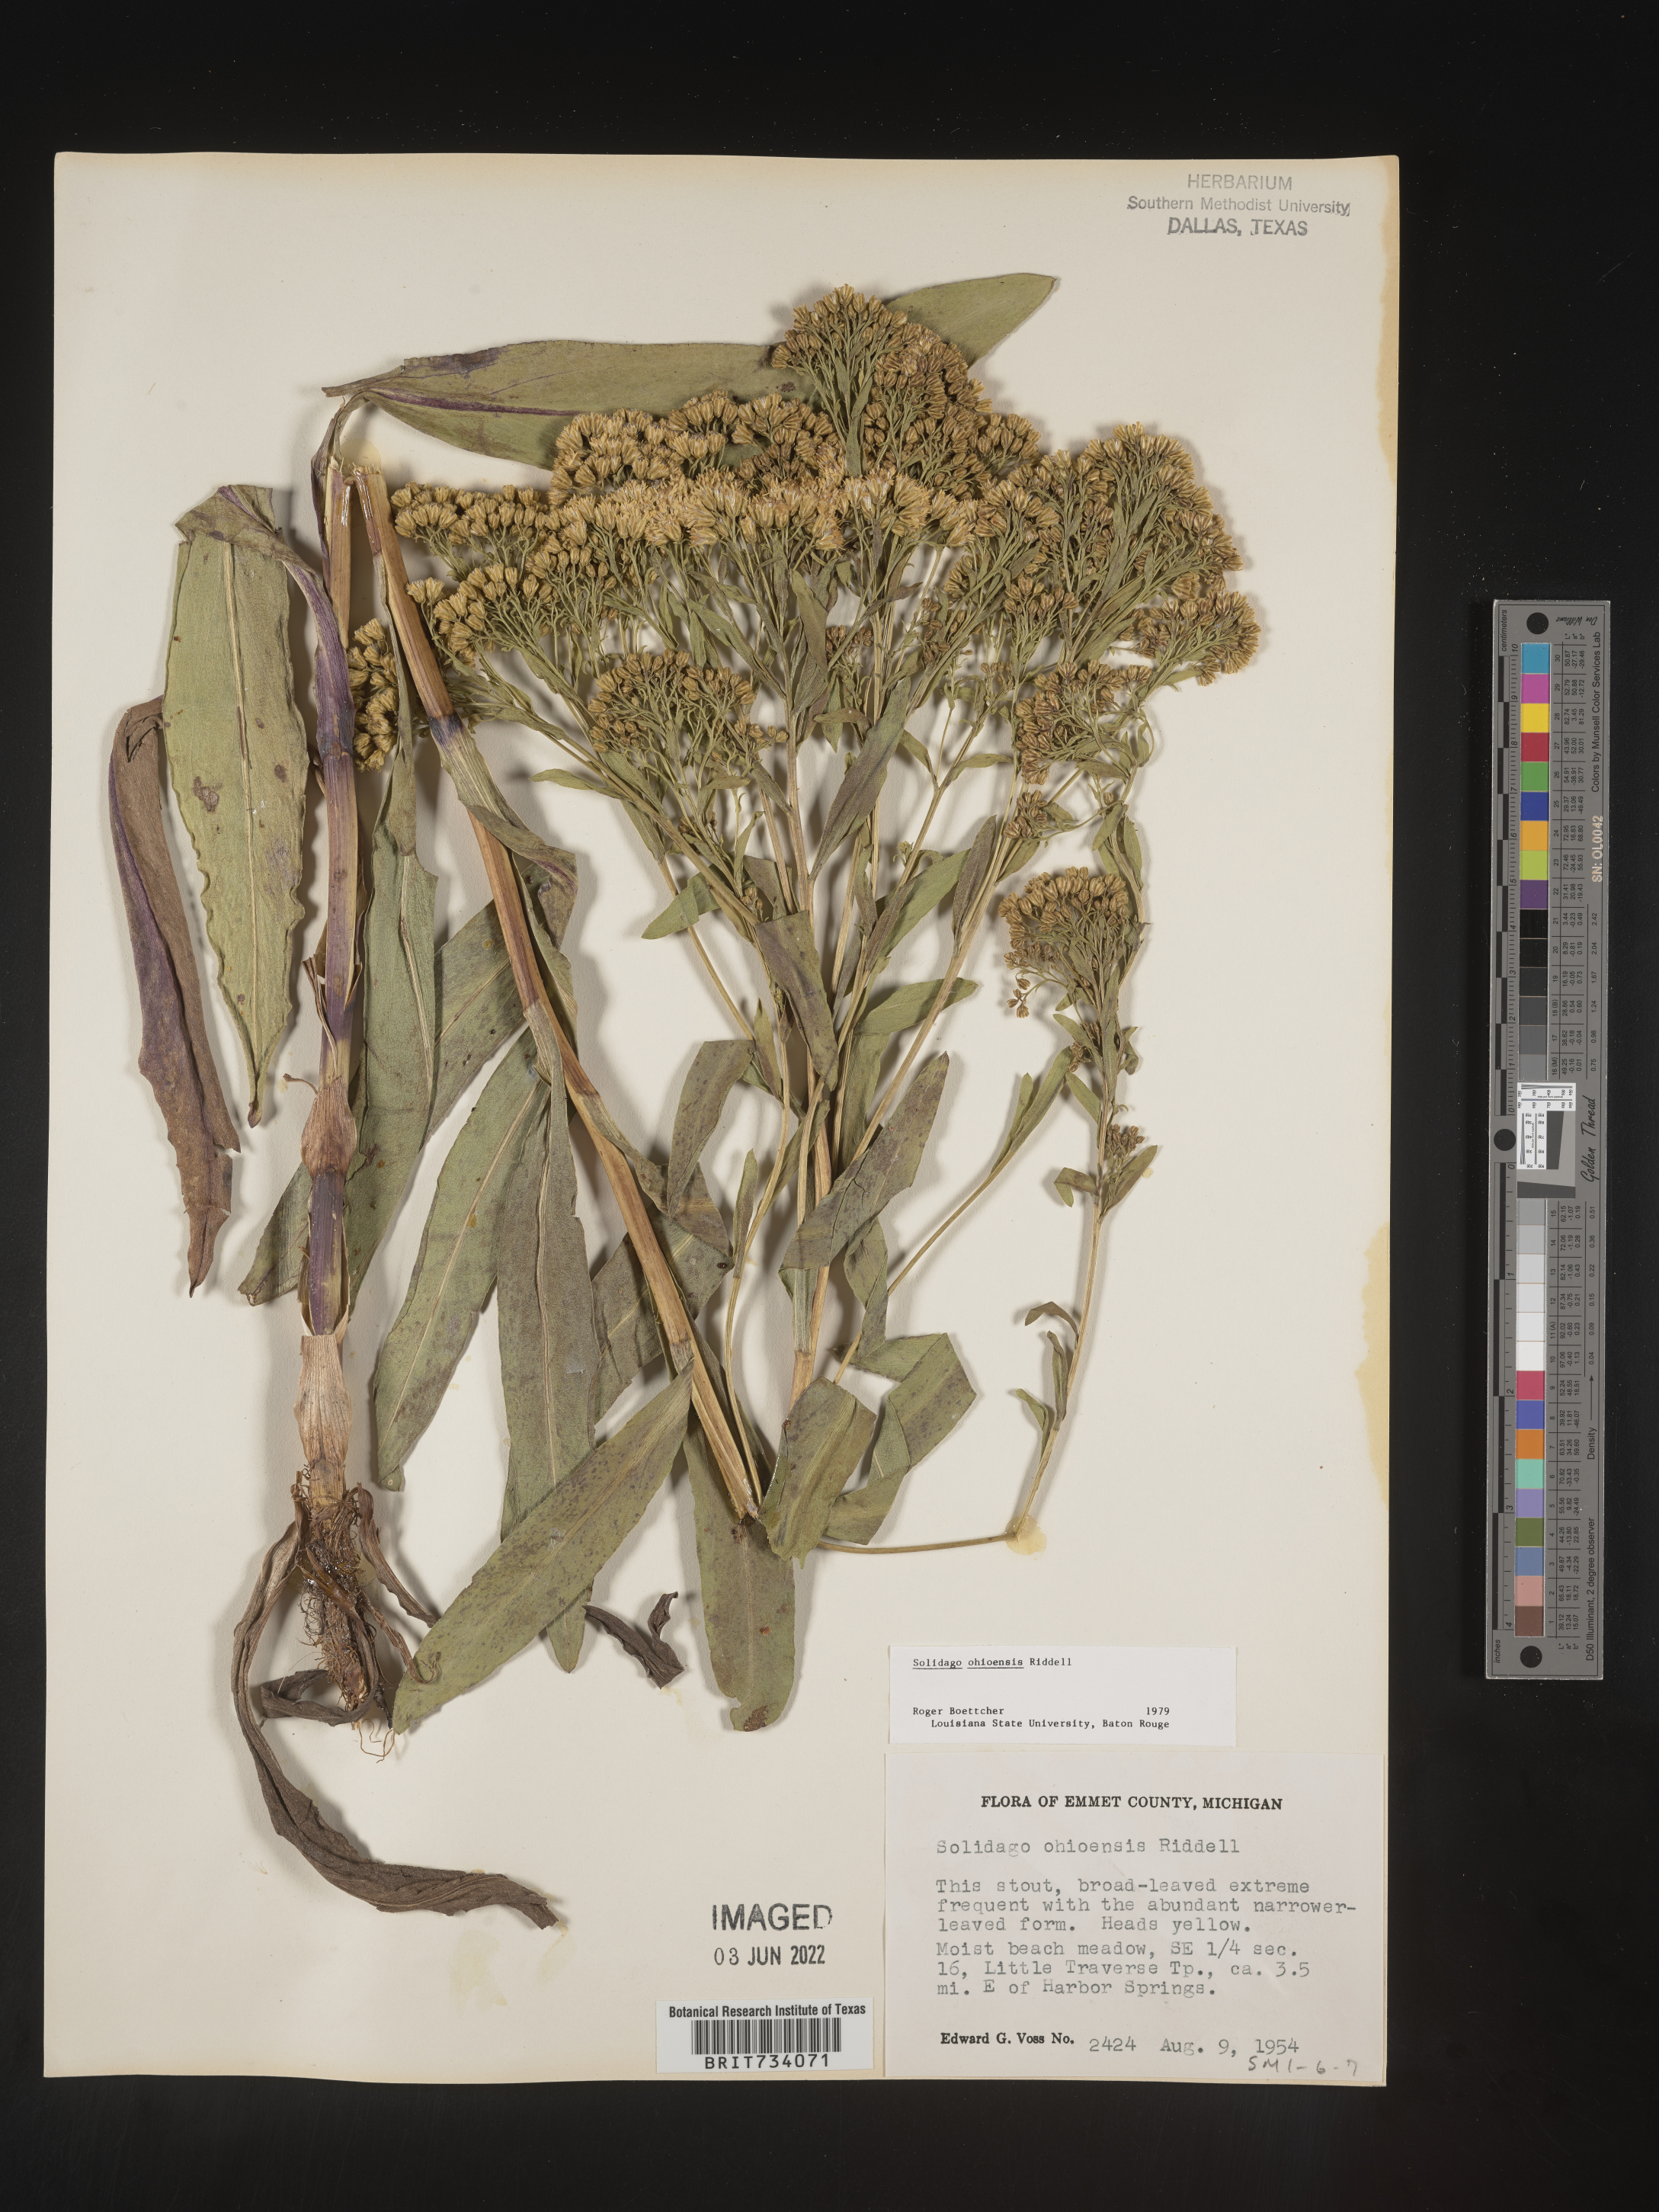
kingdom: Plantae
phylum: Tracheophyta
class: Magnoliopsida
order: Asterales
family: Asteraceae
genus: Solidago
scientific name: Solidago ohioensis
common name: Ohio goldenrod
